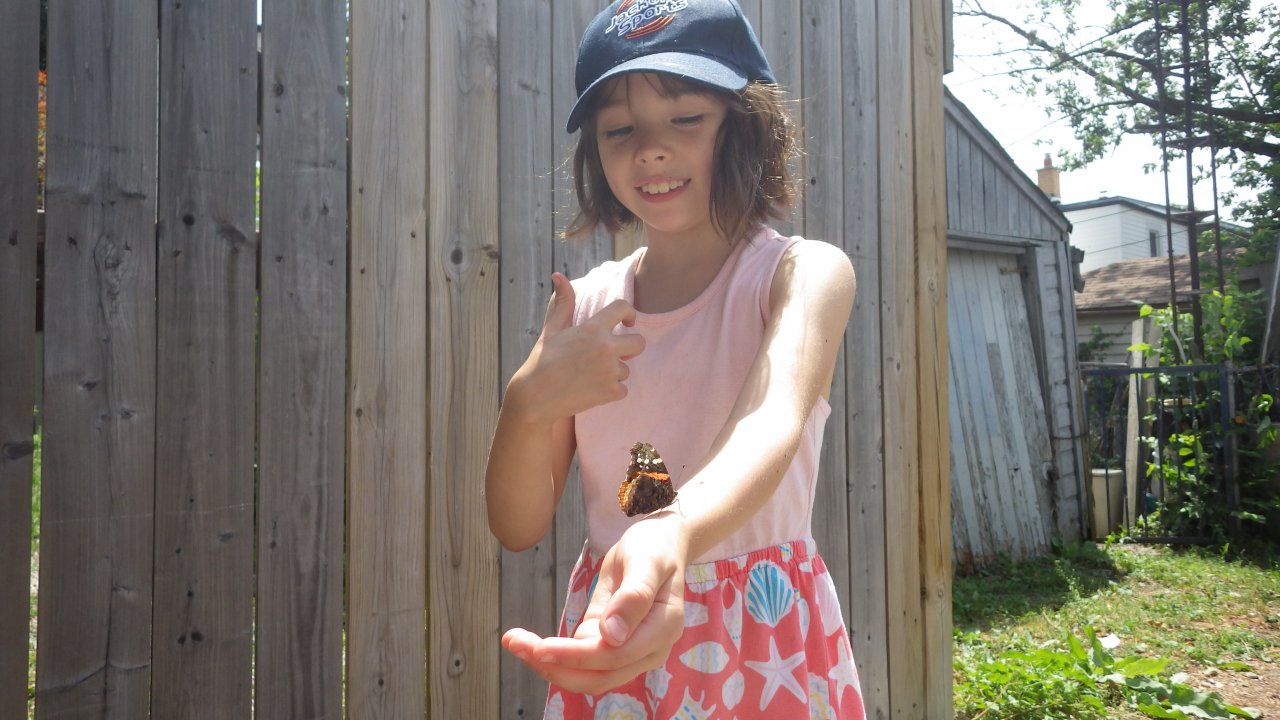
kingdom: Animalia
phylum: Arthropoda
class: Insecta
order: Lepidoptera
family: Nymphalidae
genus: Vanessa
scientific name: Vanessa atalanta
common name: Red Admiral
